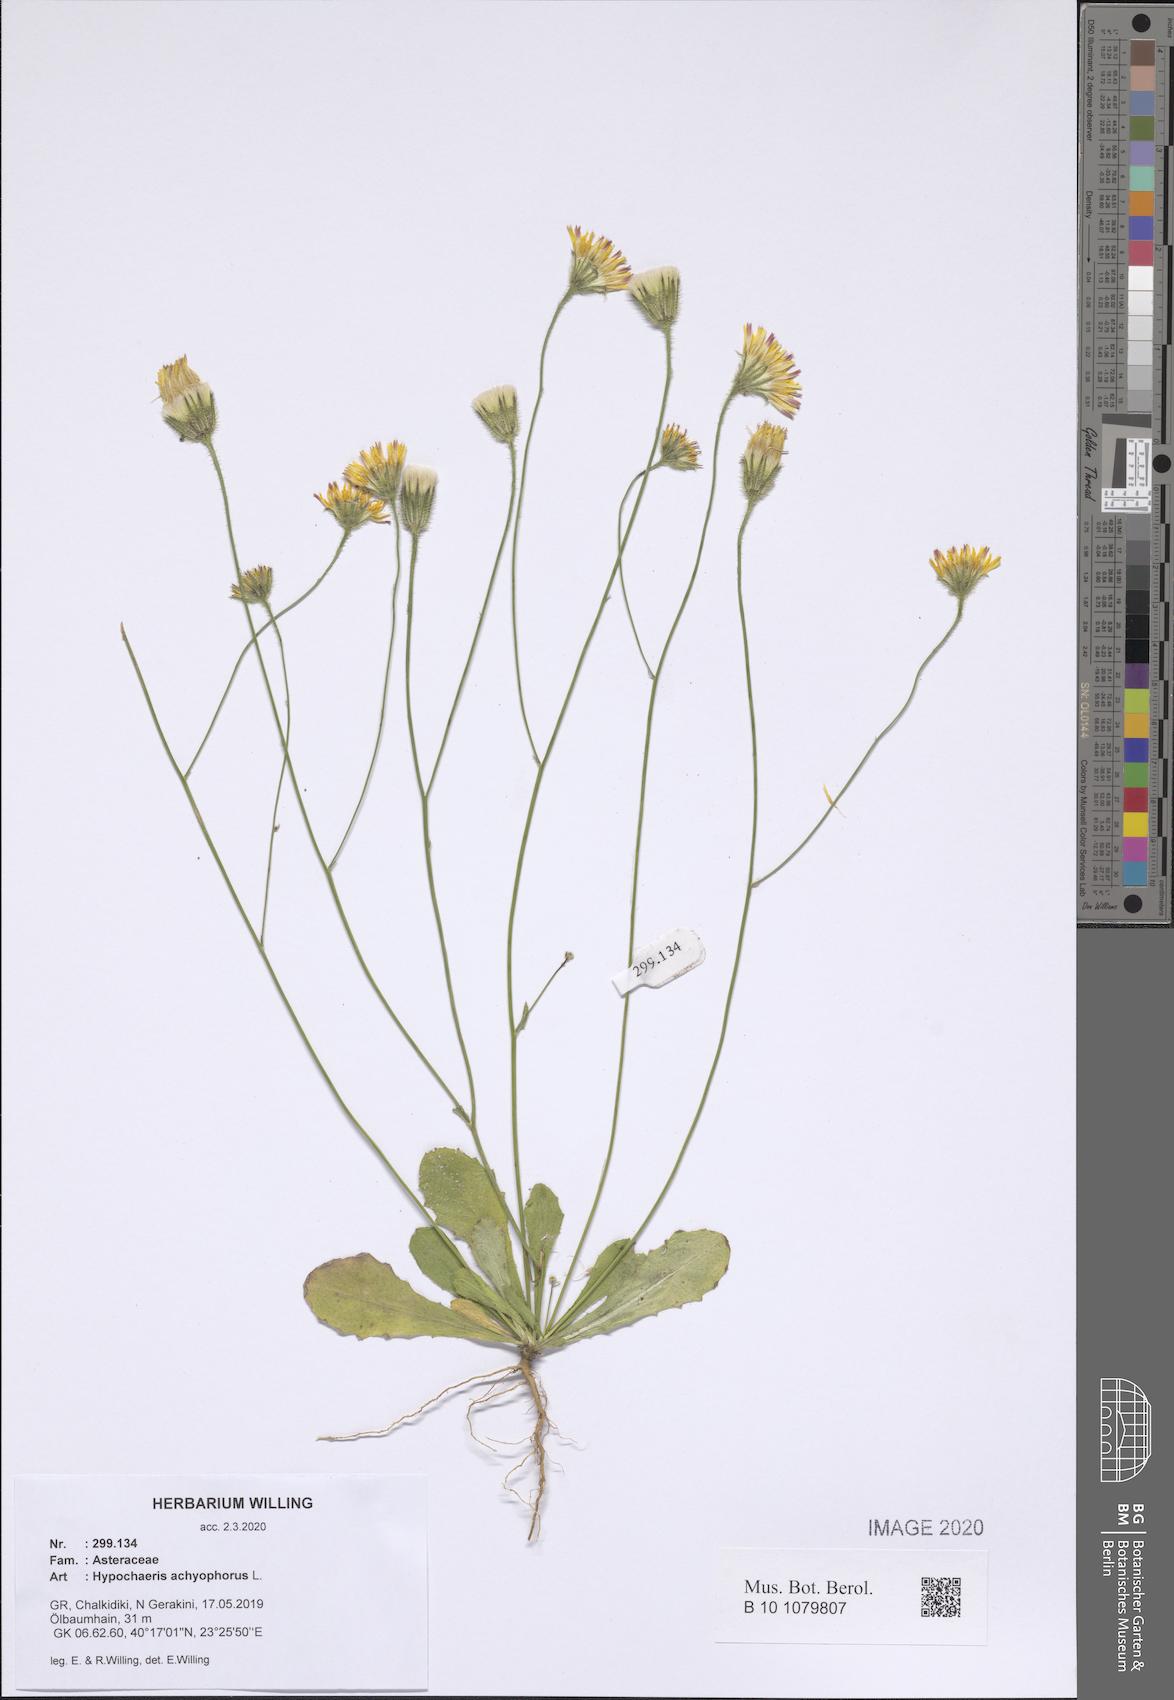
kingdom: Plantae
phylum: Tracheophyta
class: Magnoliopsida
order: Asterales
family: Asteraceae
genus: Achyrophorus
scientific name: Achyrophorus valdesii
